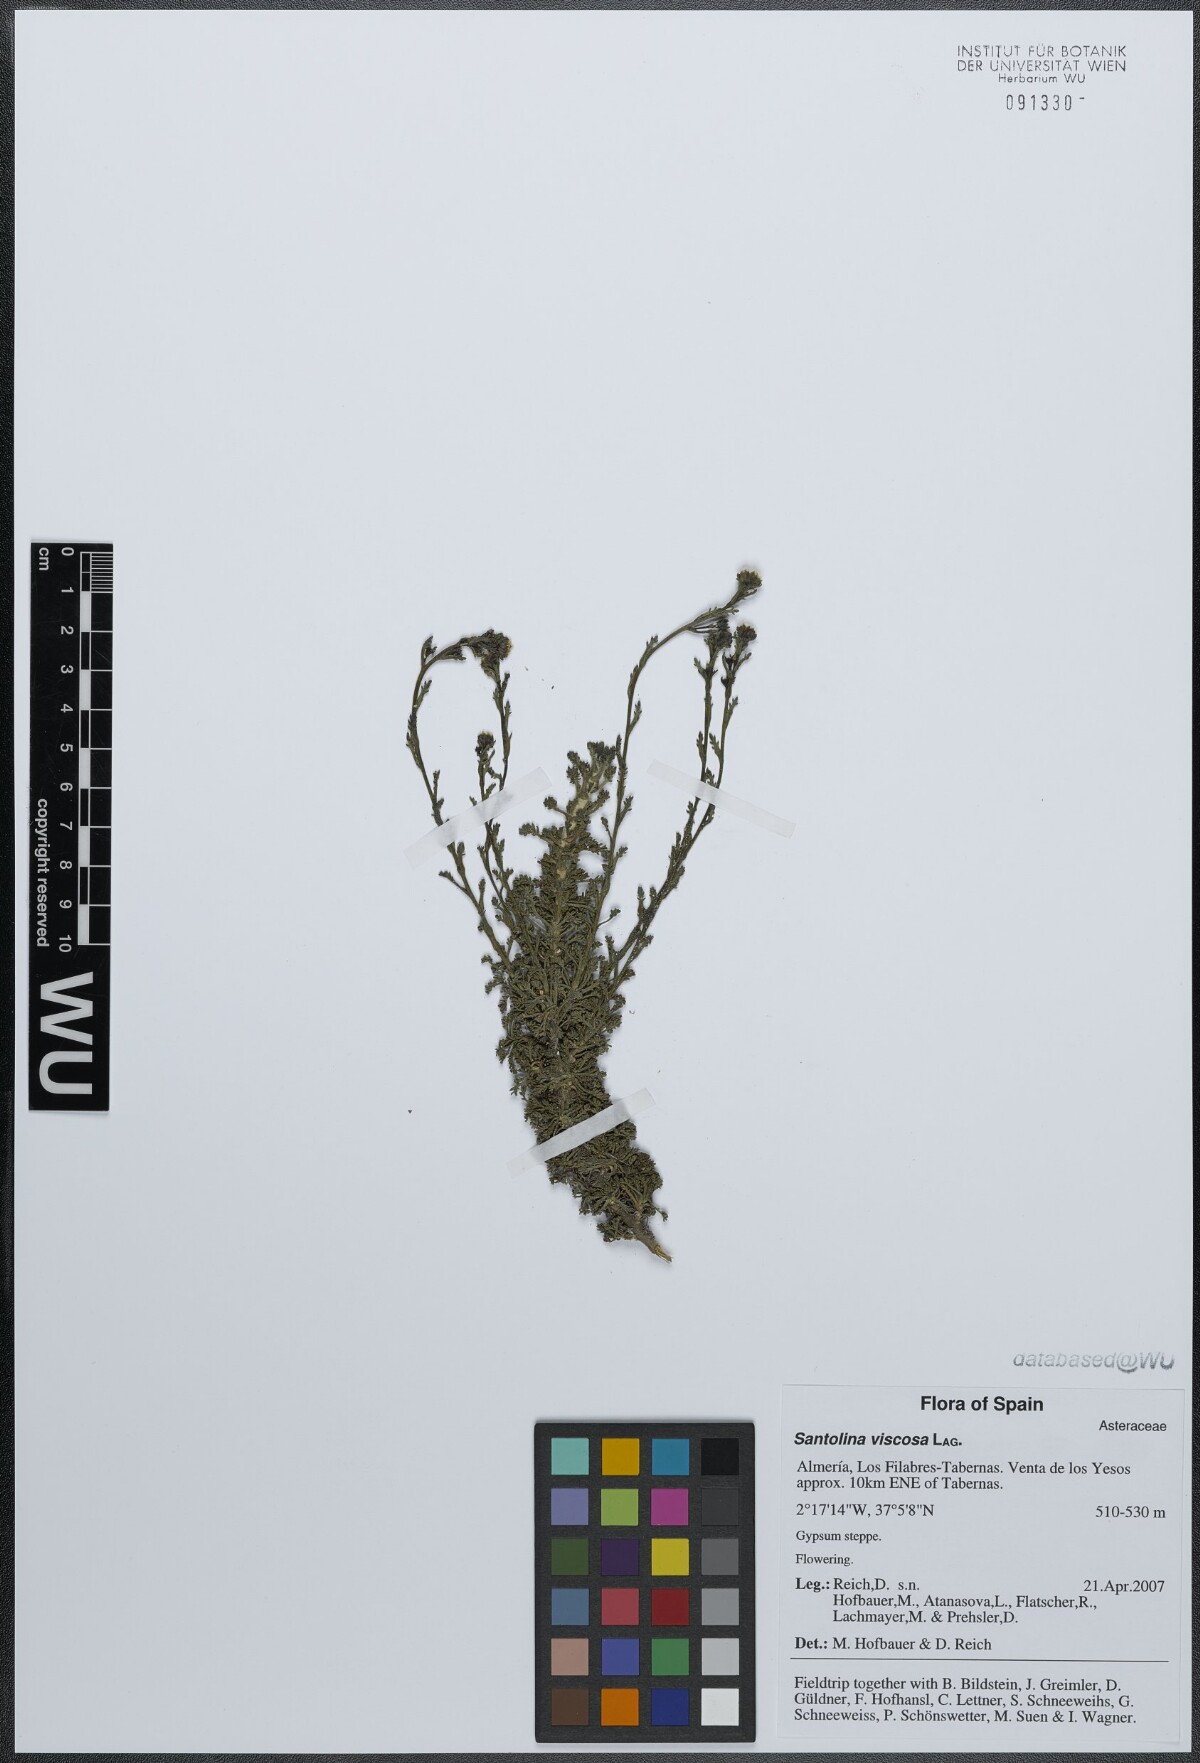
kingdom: Plantae
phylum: Tracheophyta
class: Magnoliopsida
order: Asterales
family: Asteraceae
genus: Santolina
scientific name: Santolina viscosa
